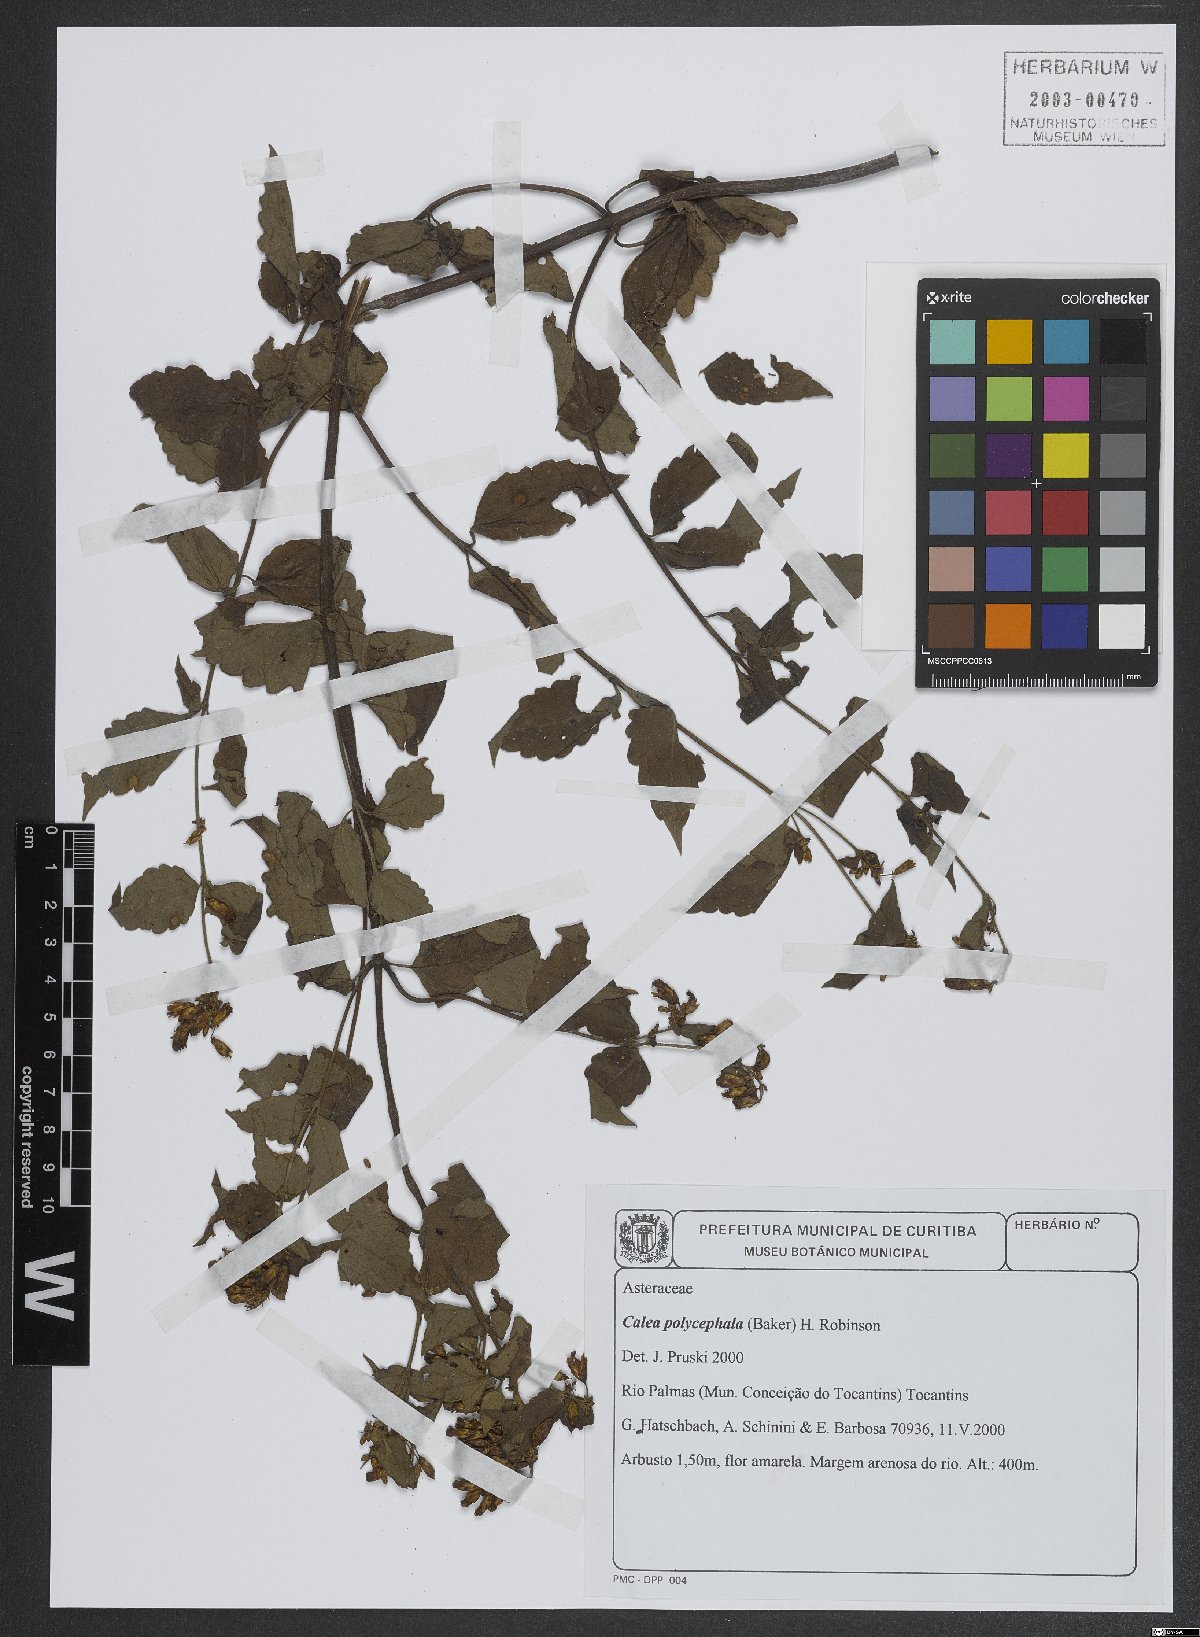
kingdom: Plantae
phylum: Tracheophyta
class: Magnoliopsida
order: Asterales
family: Asteraceae
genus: Calea
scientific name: Calea polycephala
